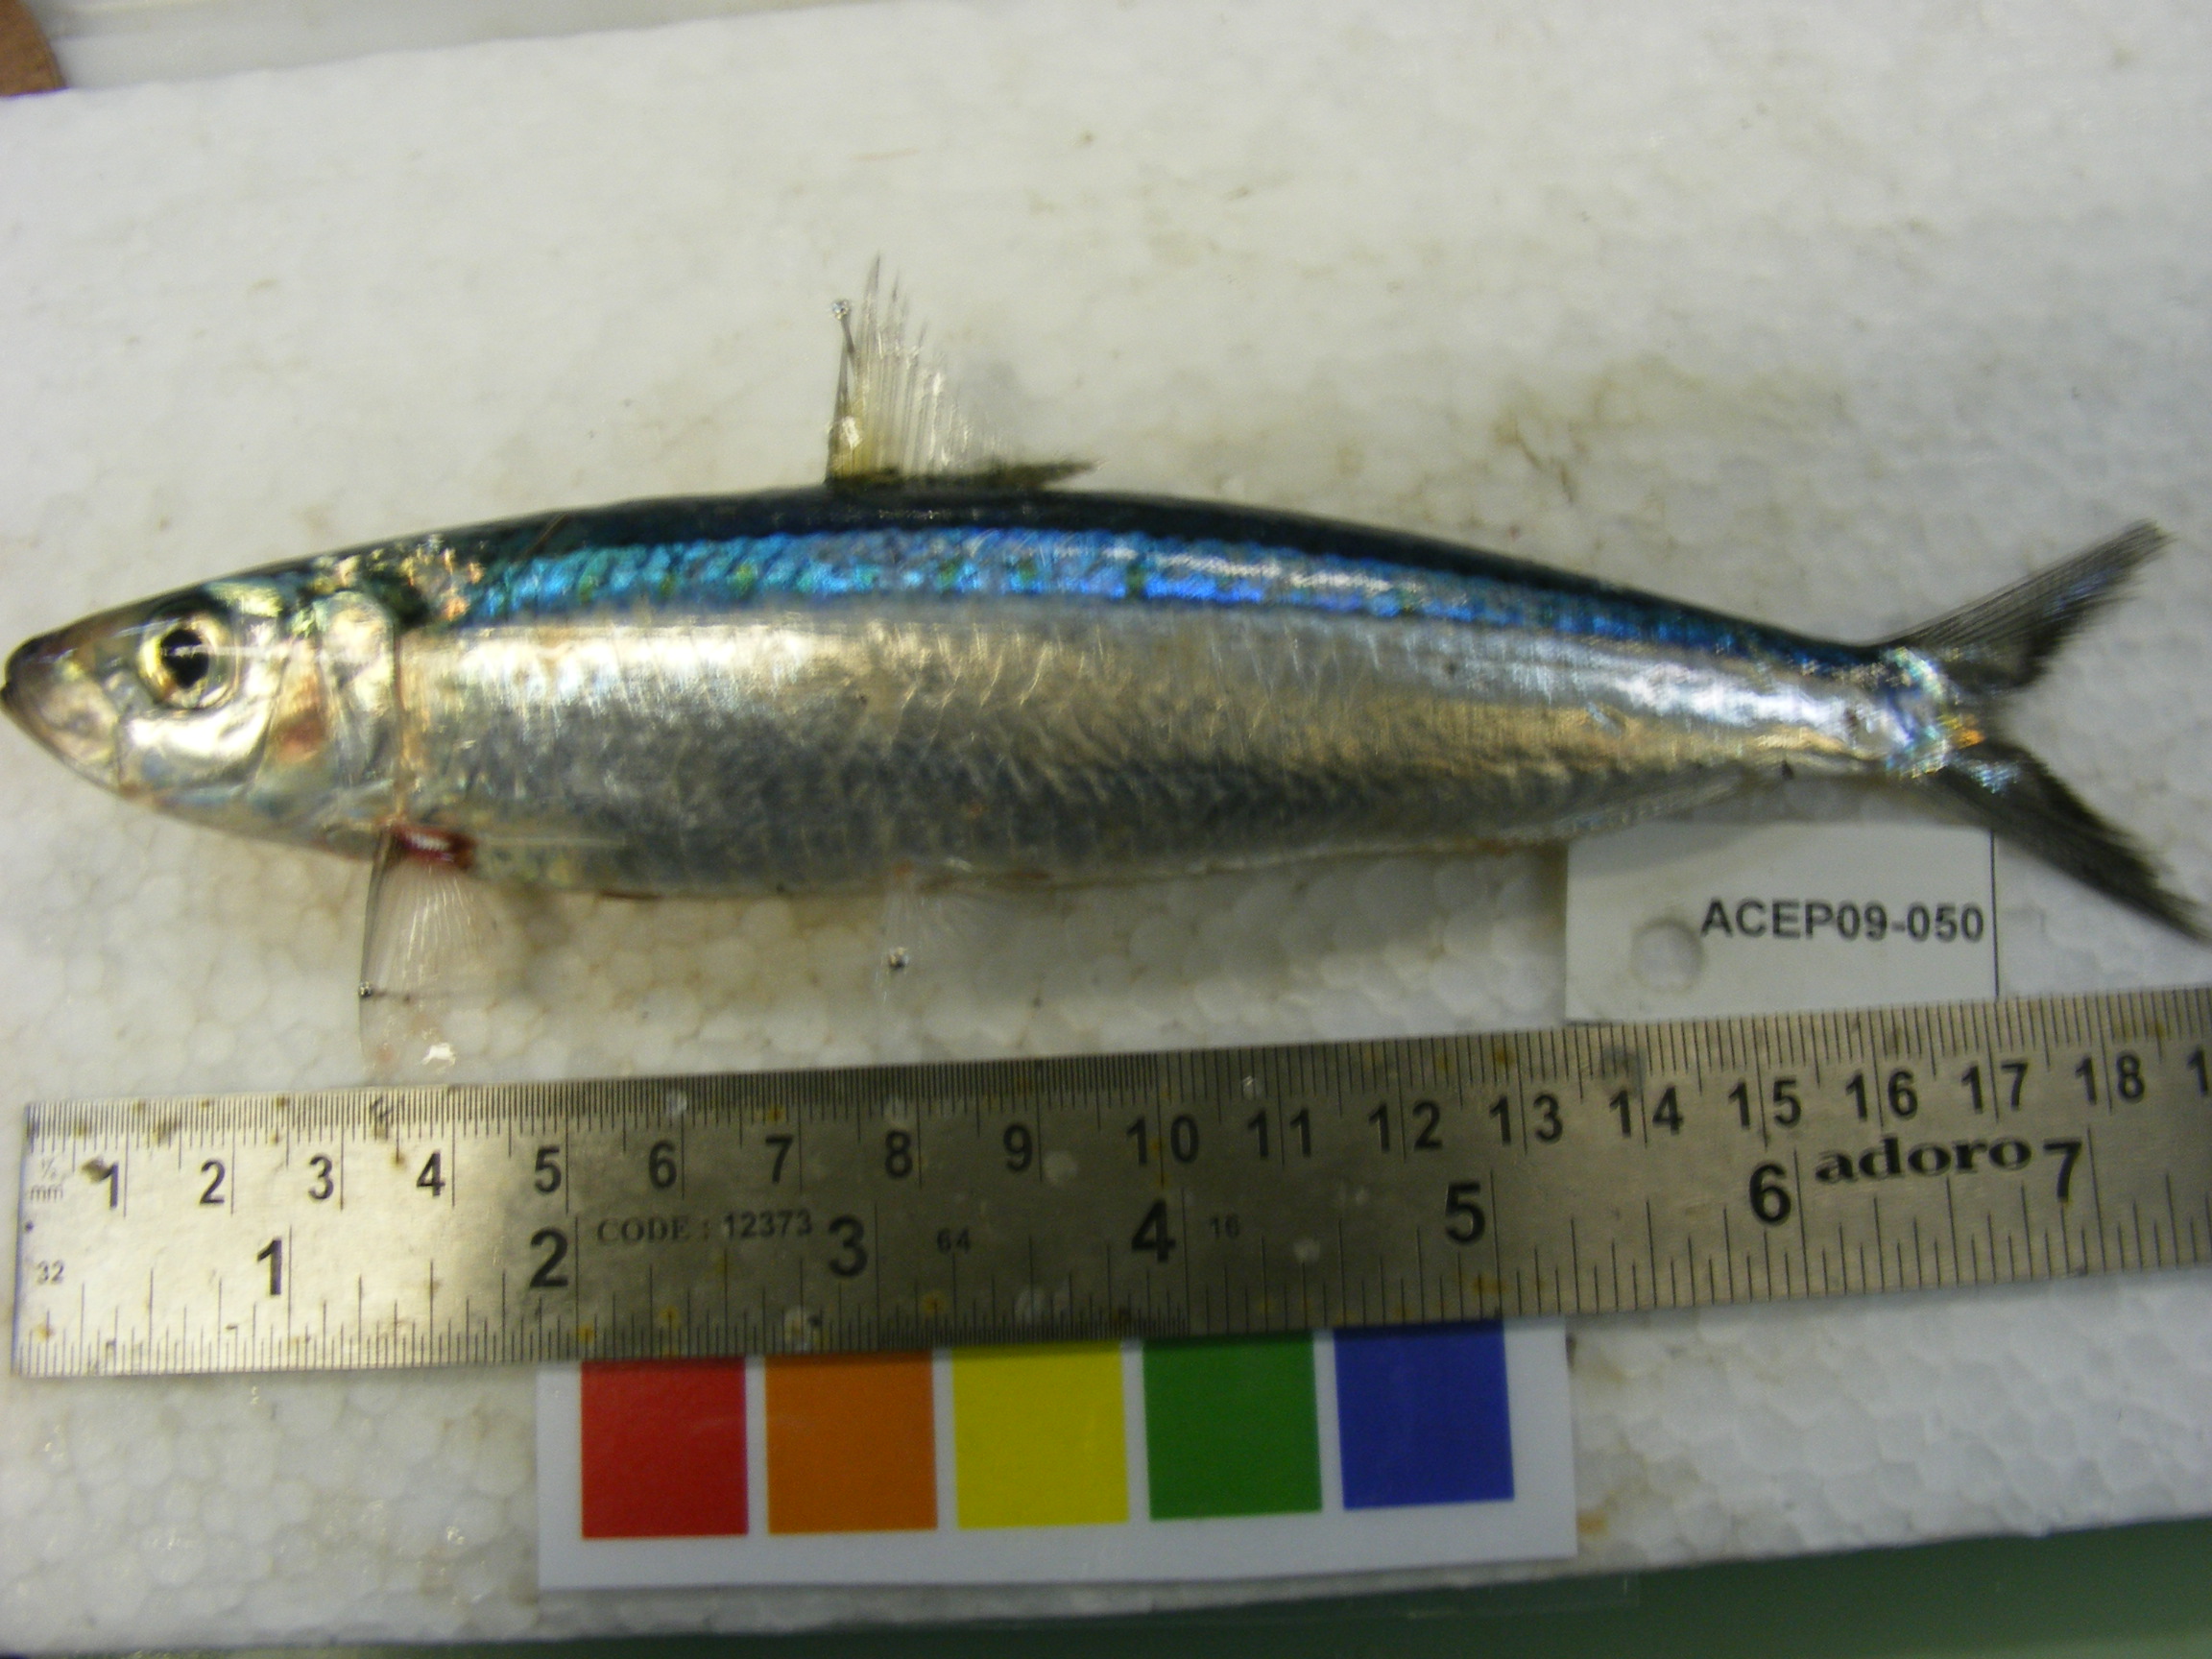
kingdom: Animalia
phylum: Chordata
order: Clupeiformes
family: Clupeidae
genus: Sardinella
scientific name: Sardinella
